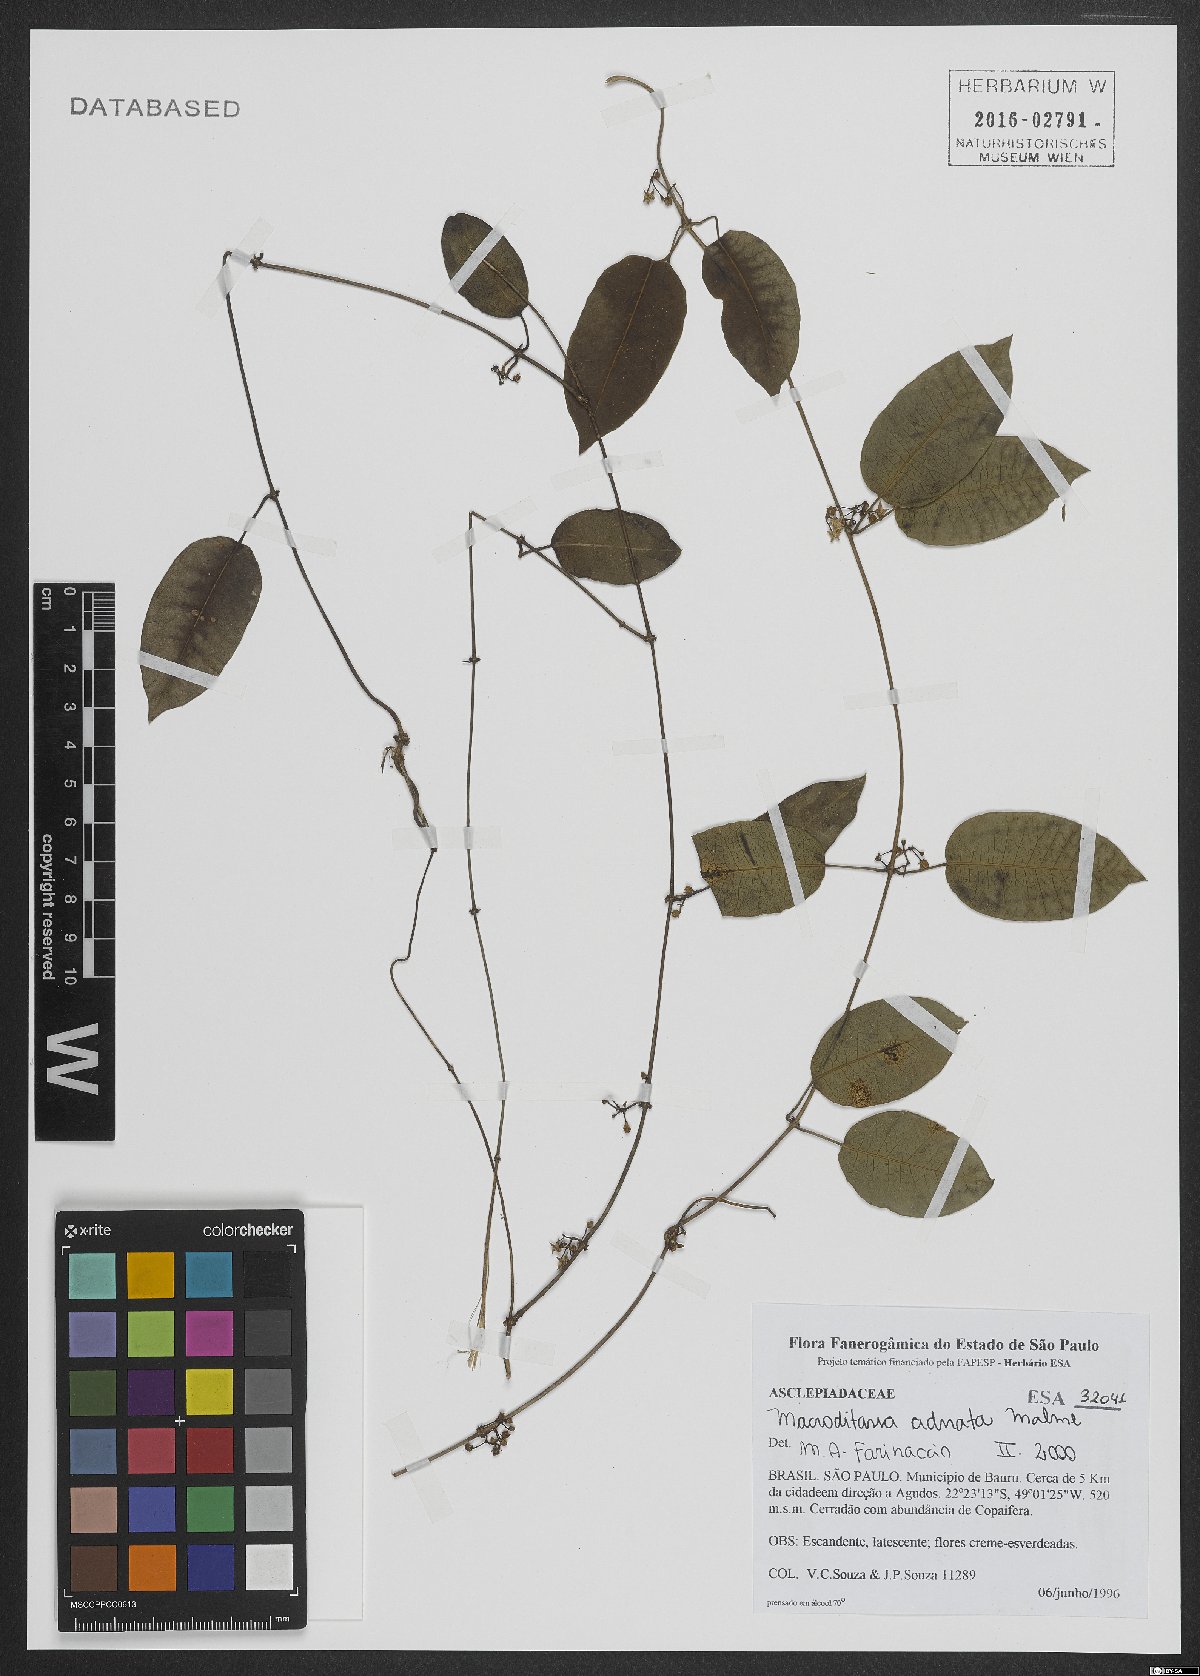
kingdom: Plantae
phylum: Tracheophyta
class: Magnoliopsida
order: Gentianales
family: Apocynaceae
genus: Peplonia
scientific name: Peplonia adnata
